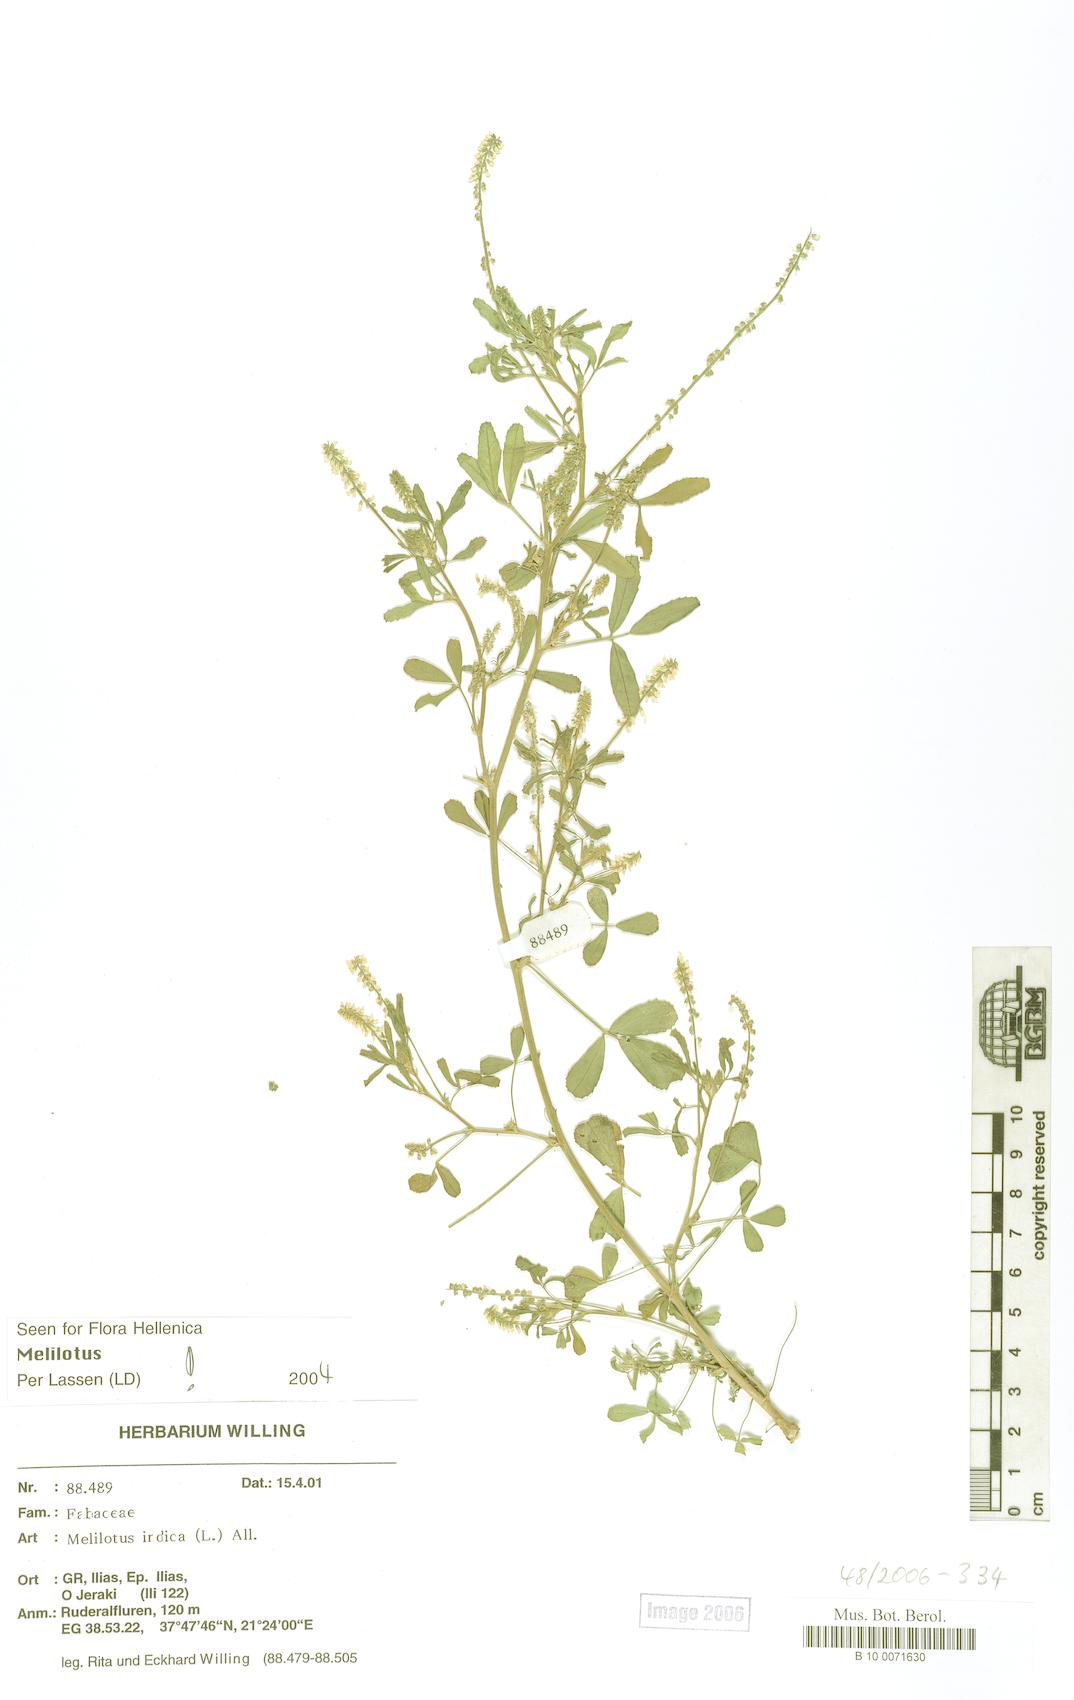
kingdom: Plantae
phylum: Tracheophyta
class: Magnoliopsida
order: Fabales
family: Fabaceae
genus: Melilotus
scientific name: Melilotus indicus
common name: Small melilot
